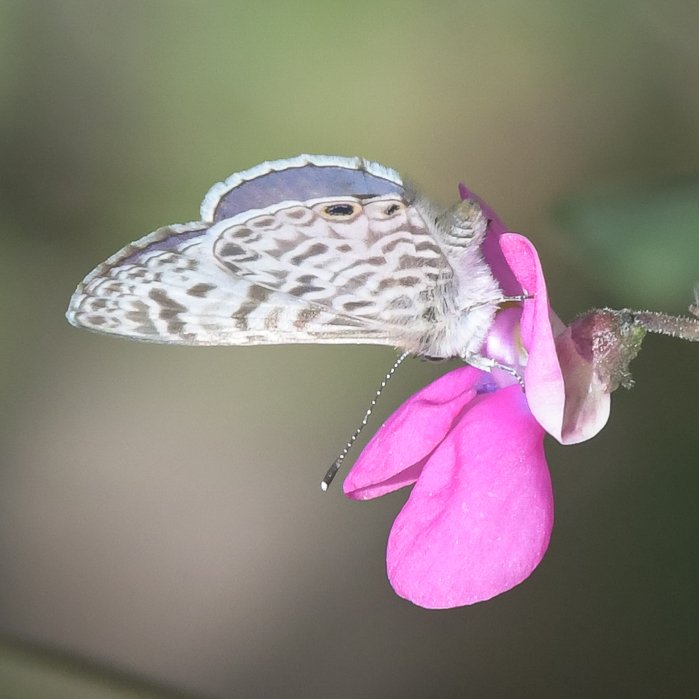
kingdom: Animalia
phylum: Arthropoda
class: Insecta
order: Lepidoptera
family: Lycaenidae
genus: Leptotes
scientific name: Leptotes cassius
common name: Cassius Blue
